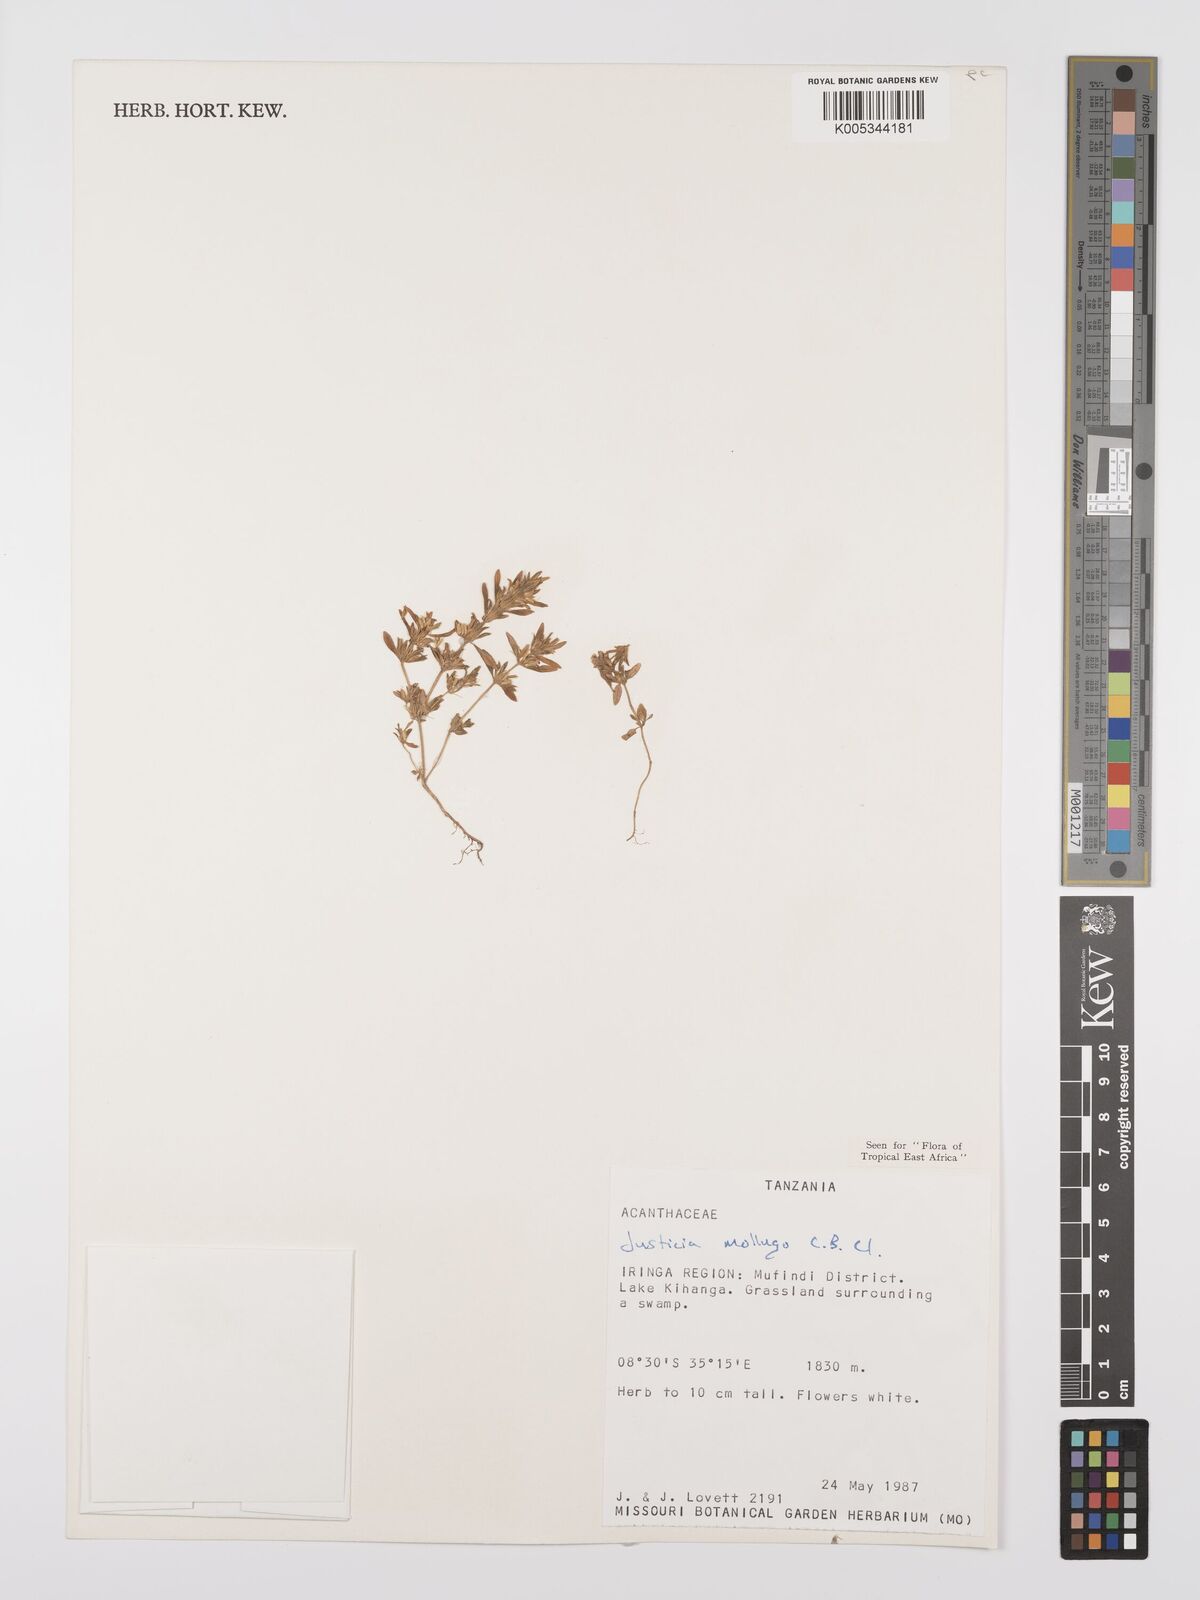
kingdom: Plantae
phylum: Tracheophyta
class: Magnoliopsida
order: Lamiales
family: Acanthaceae
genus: Justicia
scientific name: Justicia mollugo
